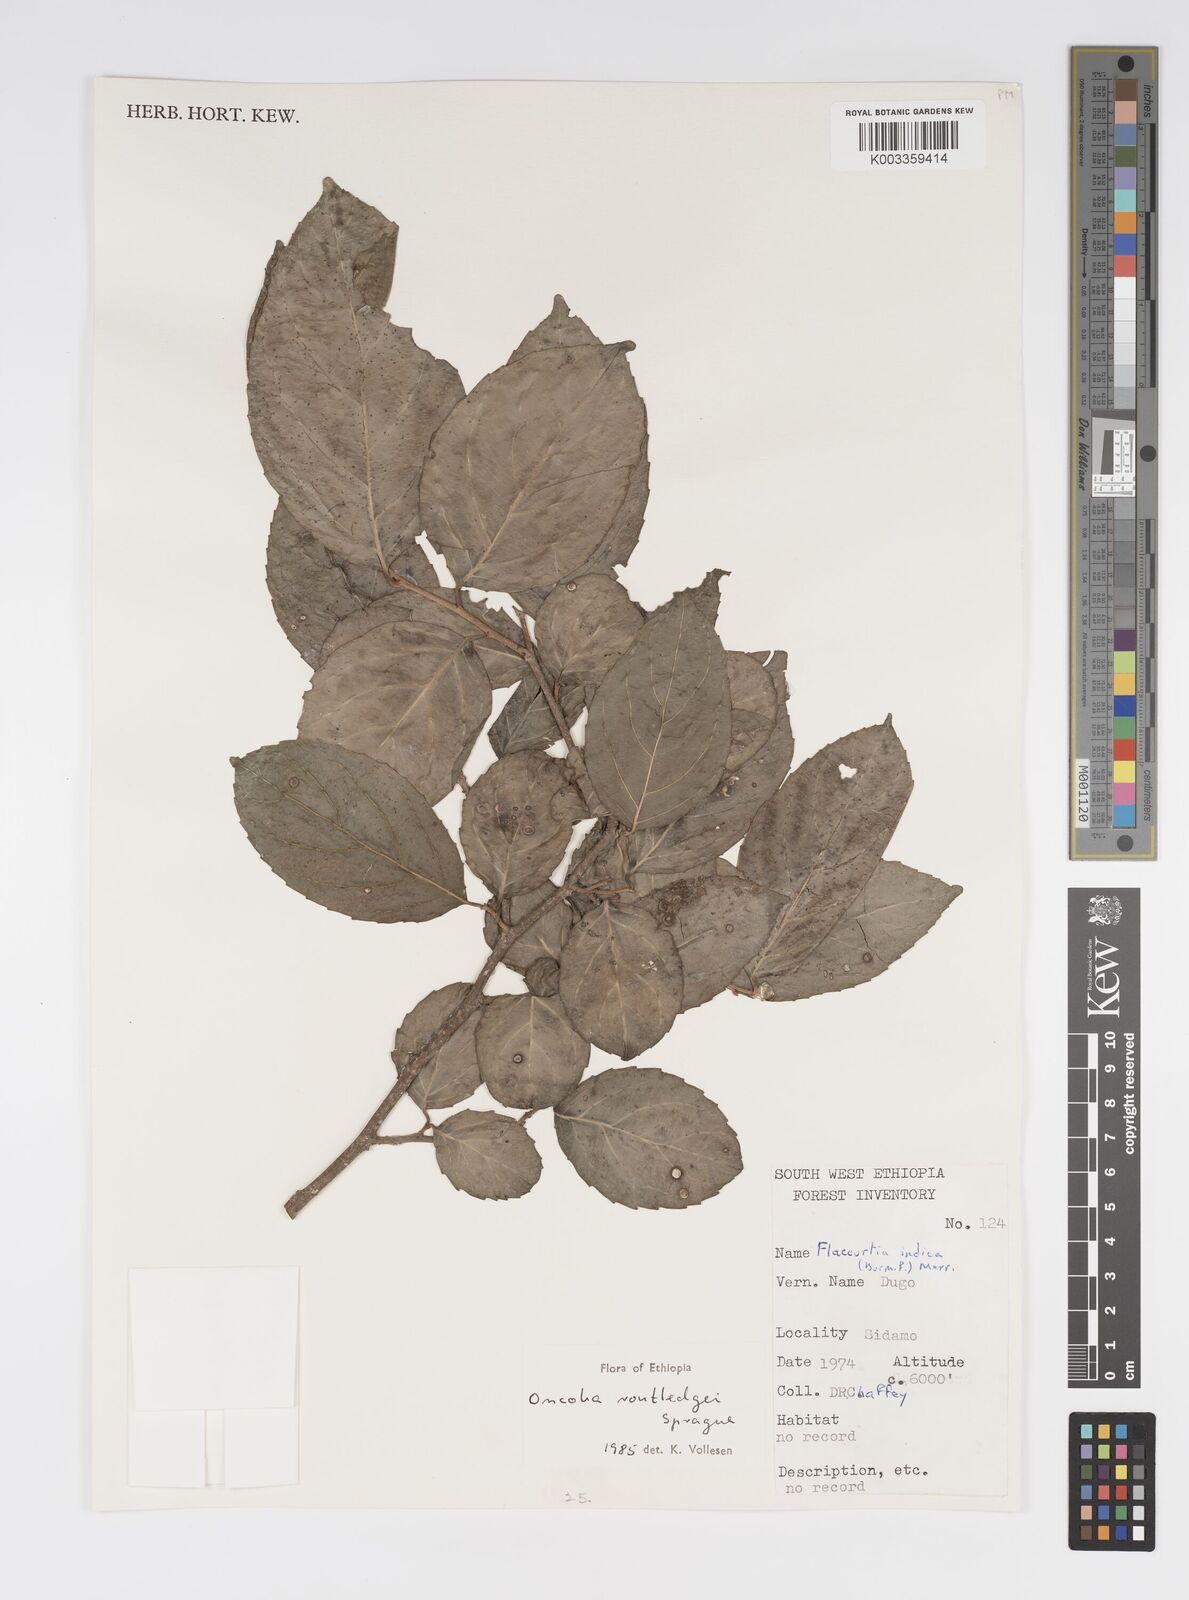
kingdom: Plantae
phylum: Tracheophyta
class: Magnoliopsida
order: Malpighiales
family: Salicaceae
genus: Oncoba
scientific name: Oncoba routledgei
